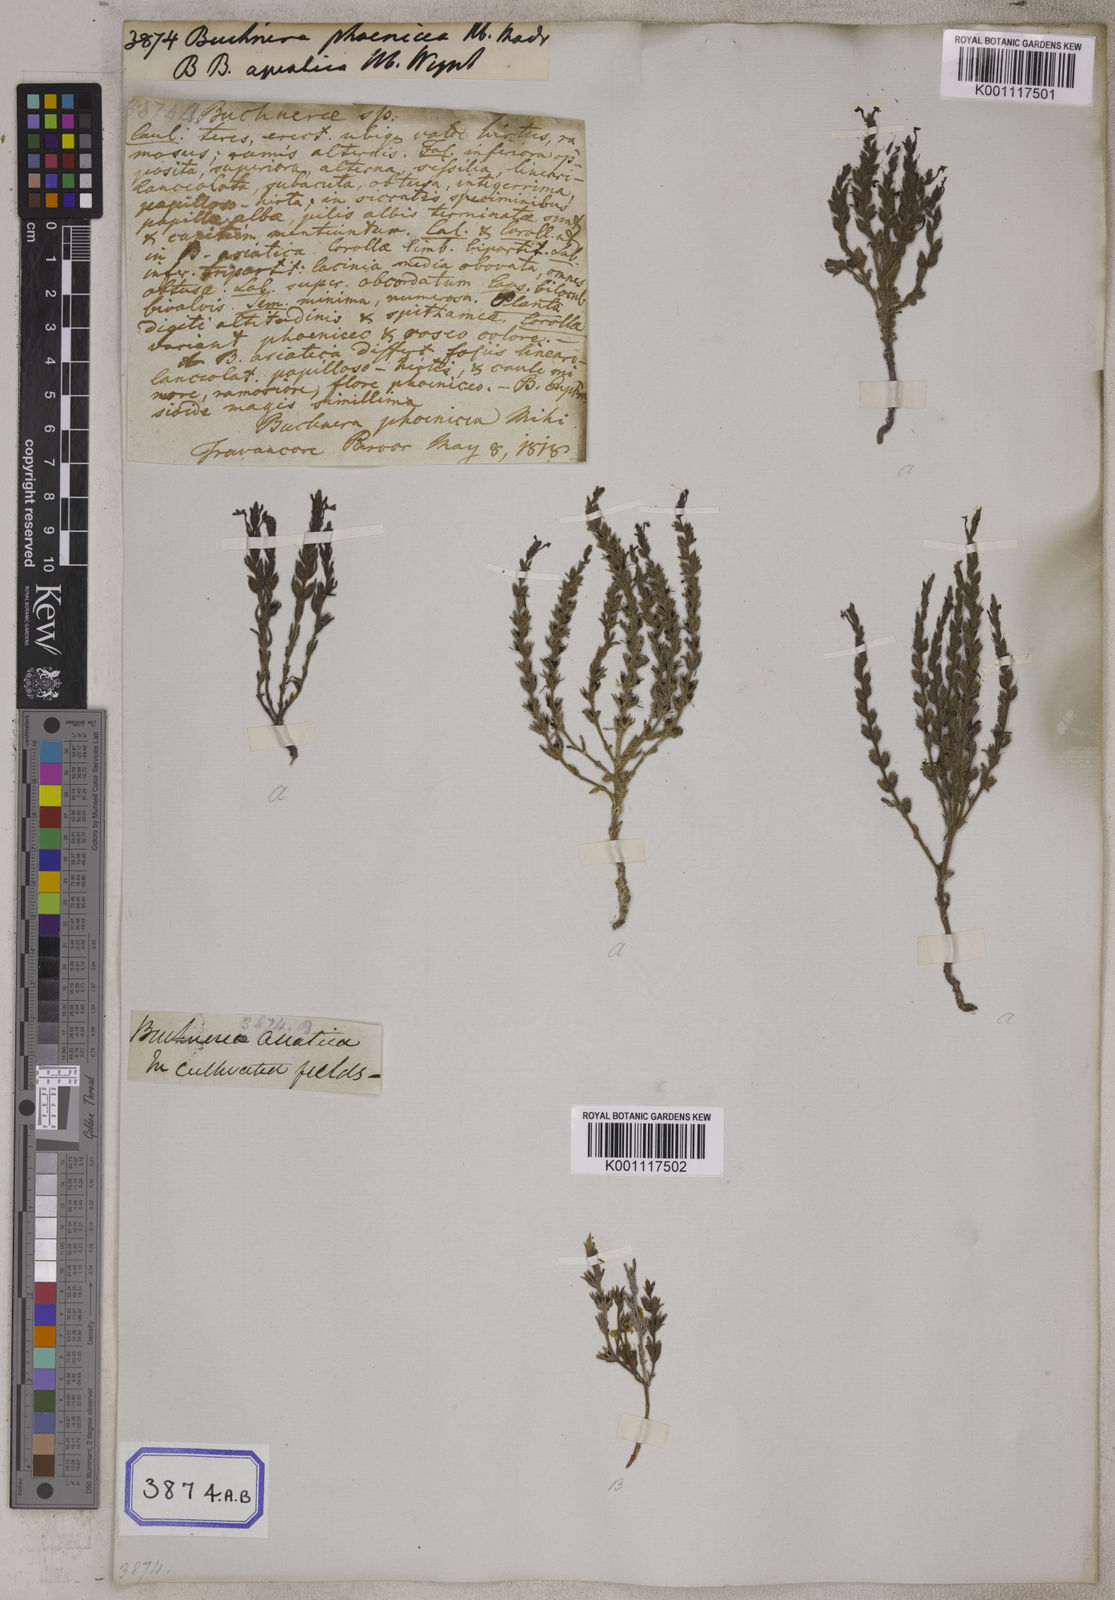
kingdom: Plantae
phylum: Tracheophyta
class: Magnoliopsida
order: Lamiales
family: Orobanchaceae
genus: Buchnera
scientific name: Buchnera
